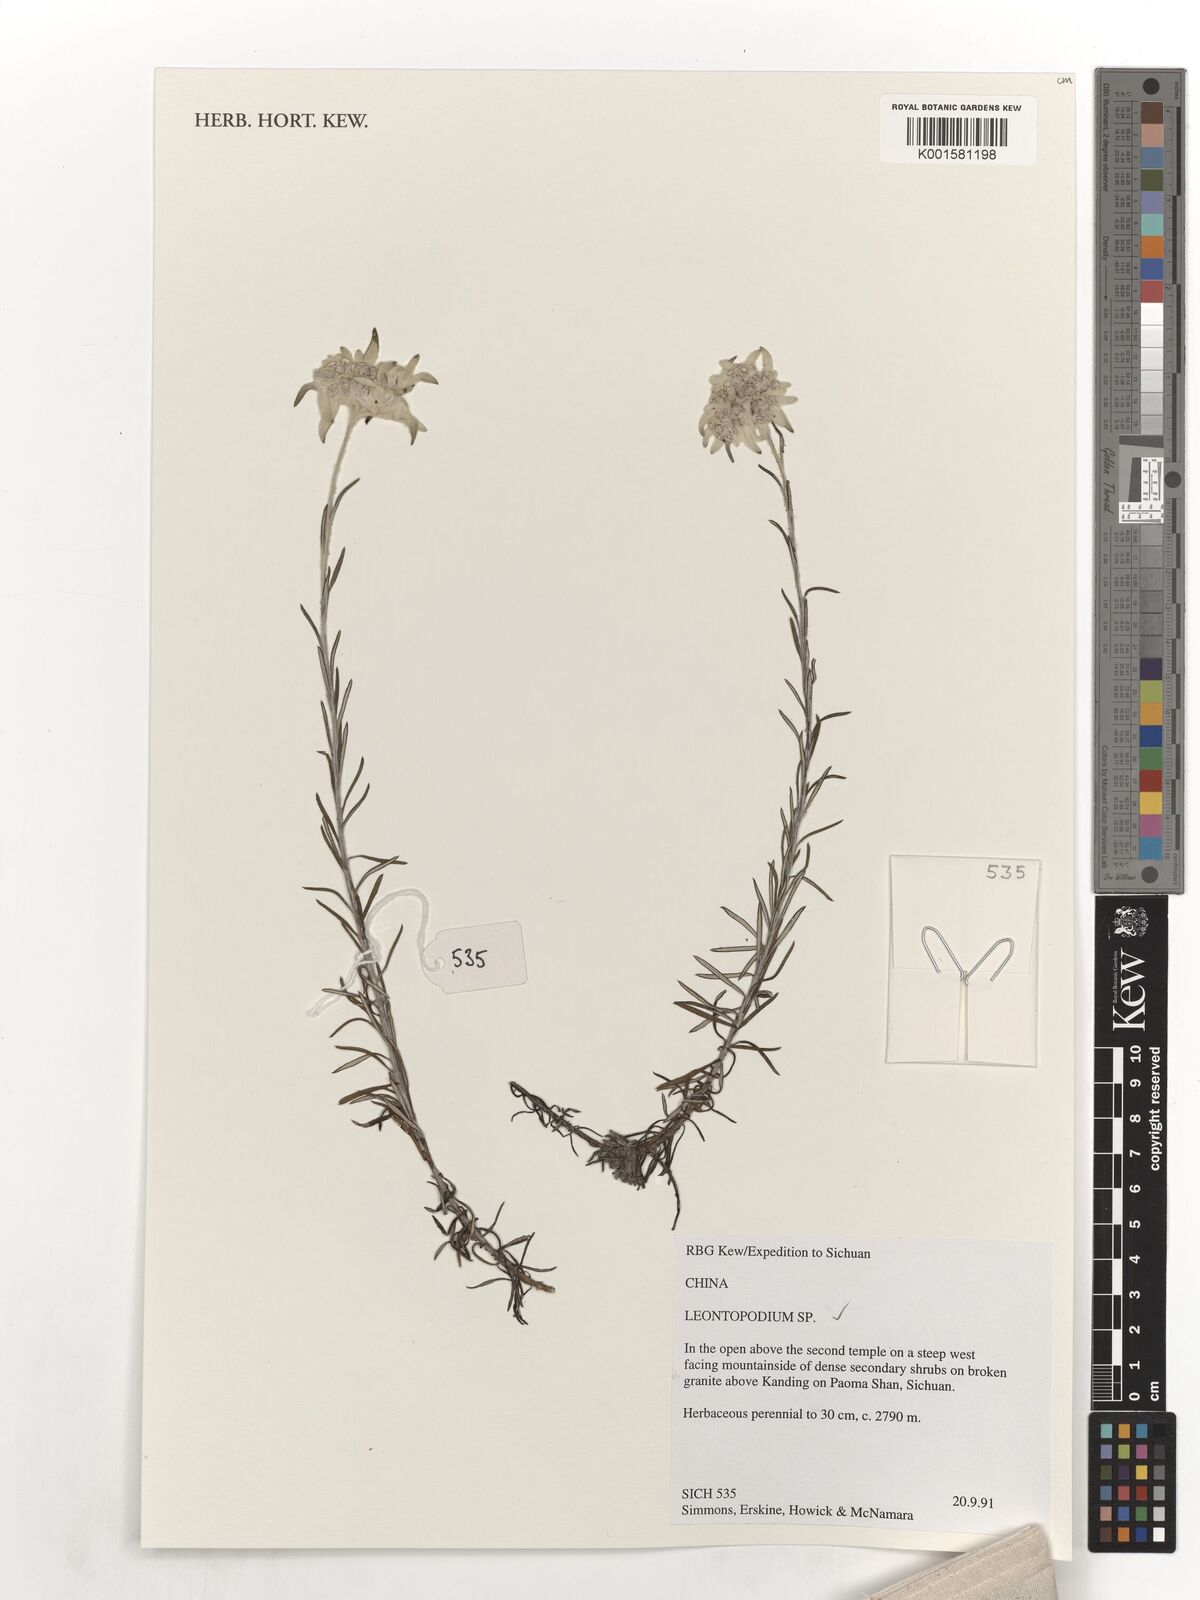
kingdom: Plantae
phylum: Tracheophyta
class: Magnoliopsida
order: Asterales
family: Asteraceae
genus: Leontopodium
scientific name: Leontopodium
